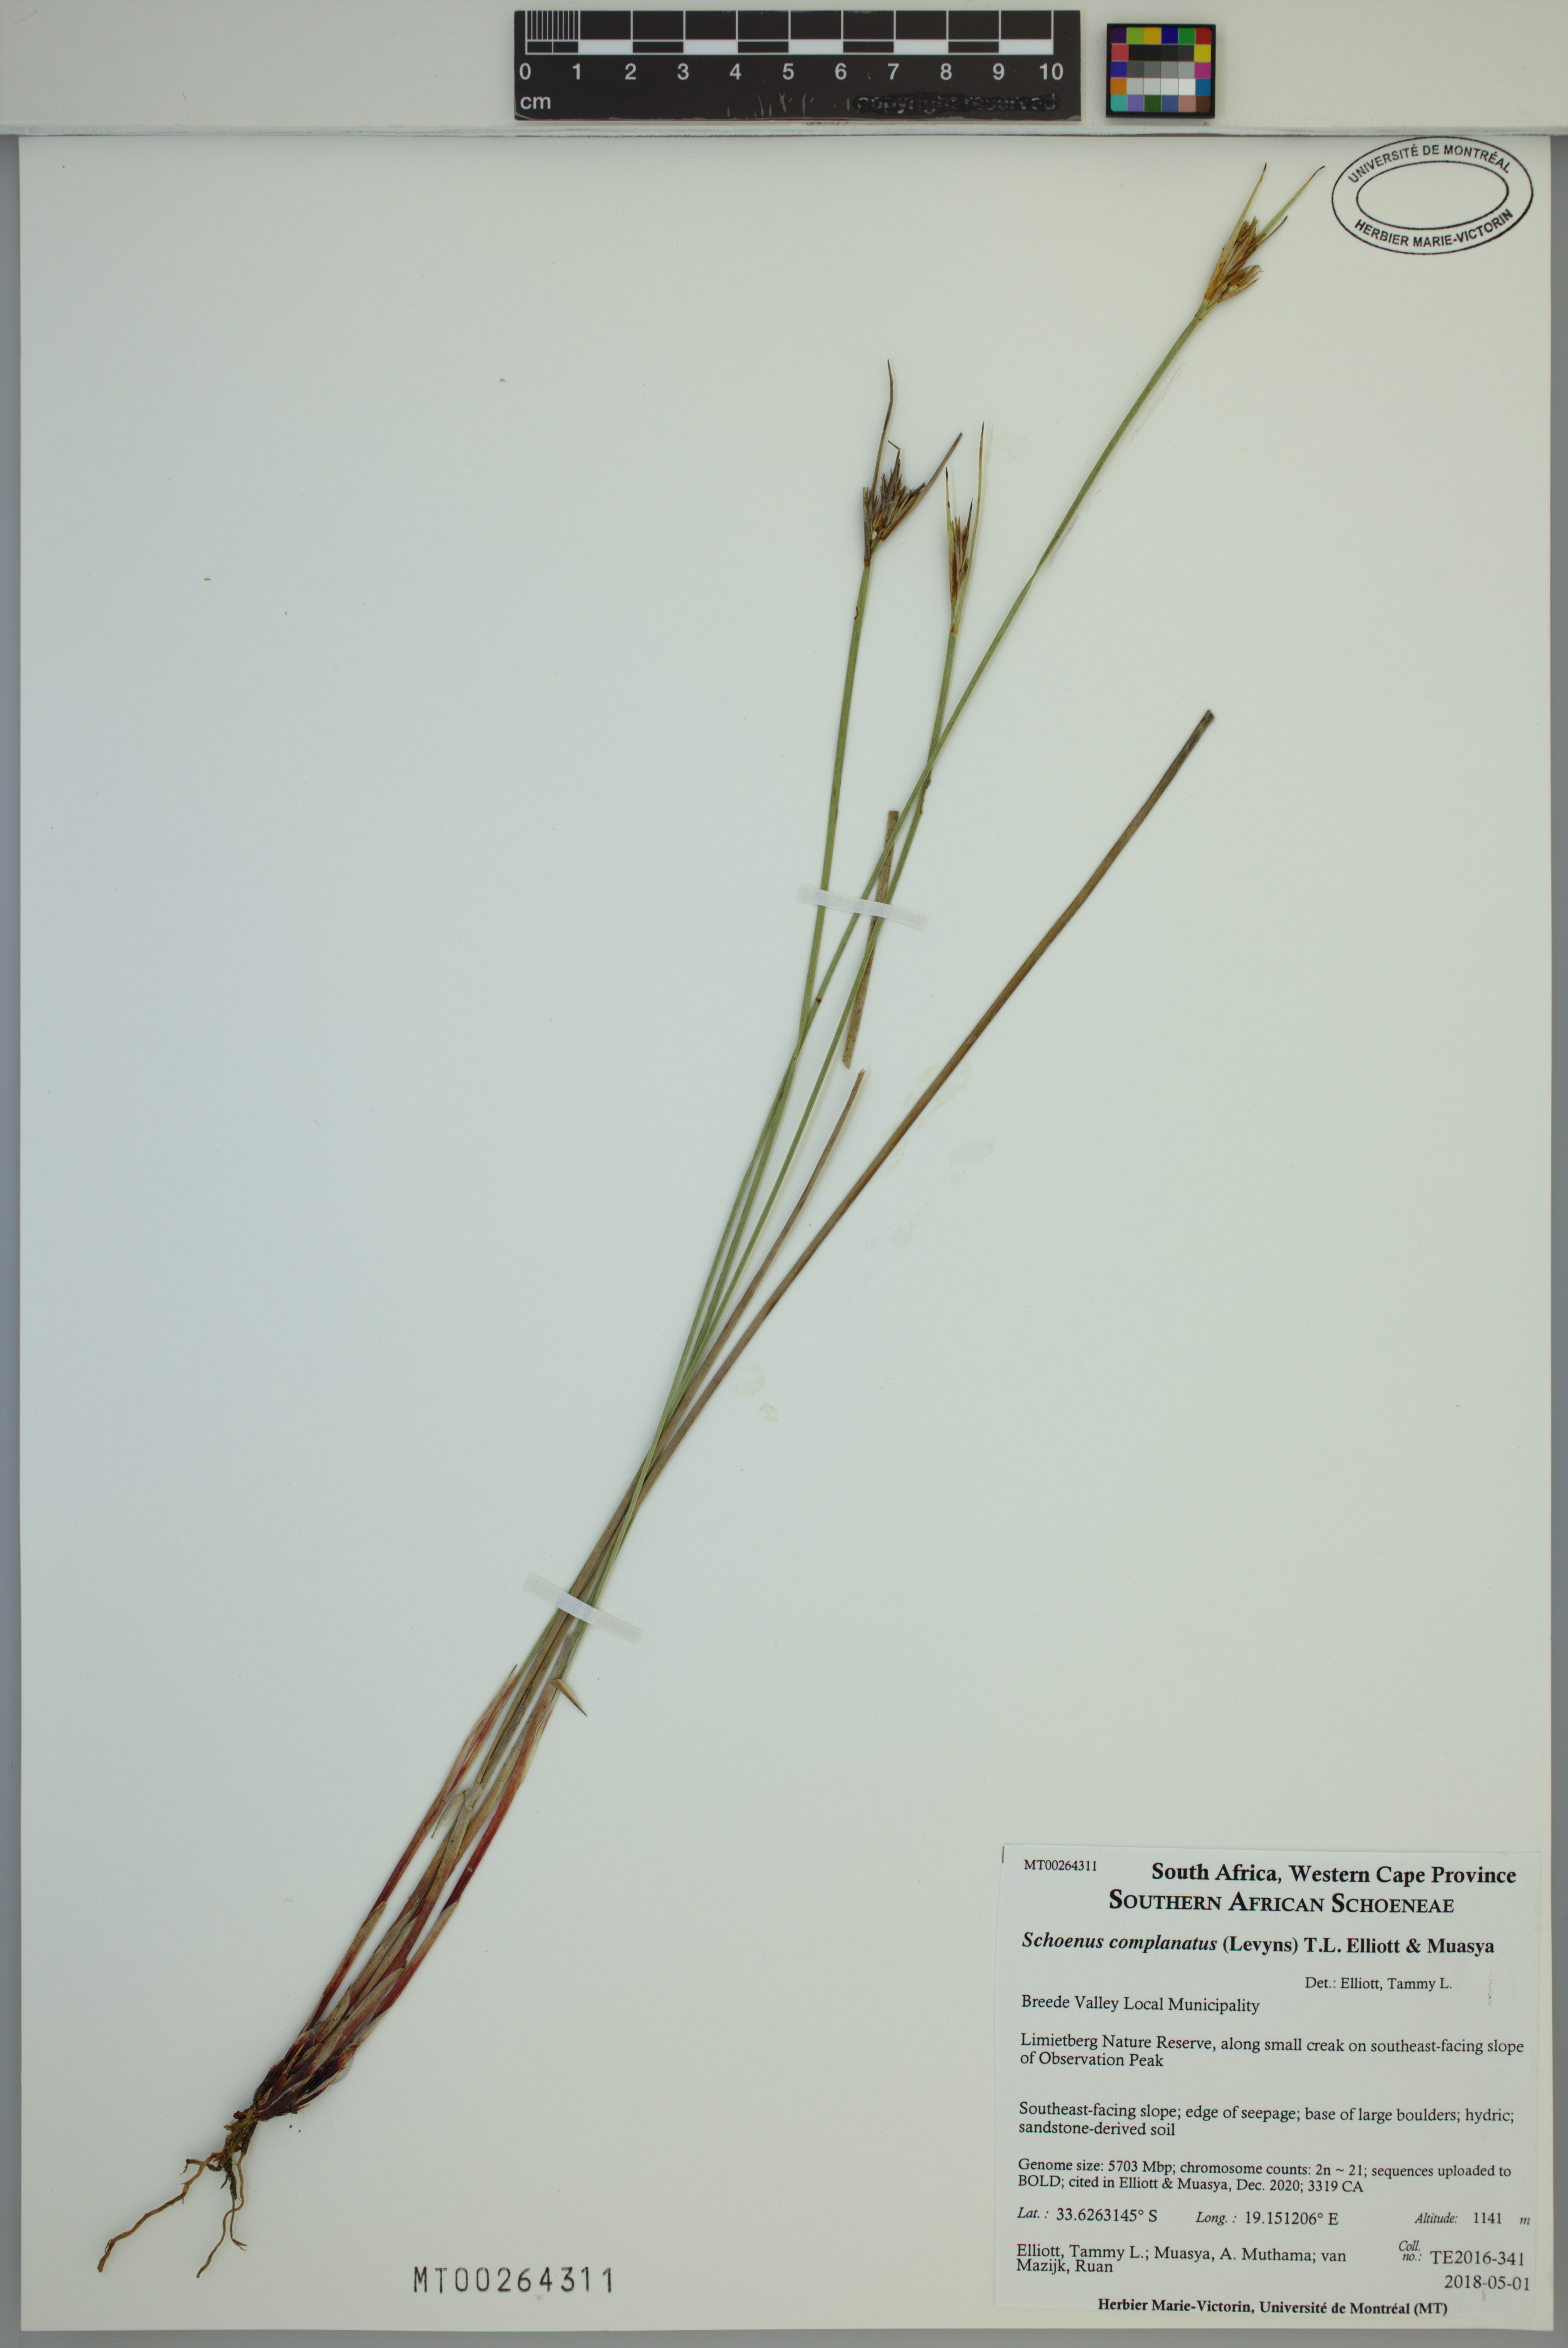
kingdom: Plantae
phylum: Tracheophyta
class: Liliopsida
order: Poales
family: Cyperaceae
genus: Schoenus
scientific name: Schoenus complanatus
